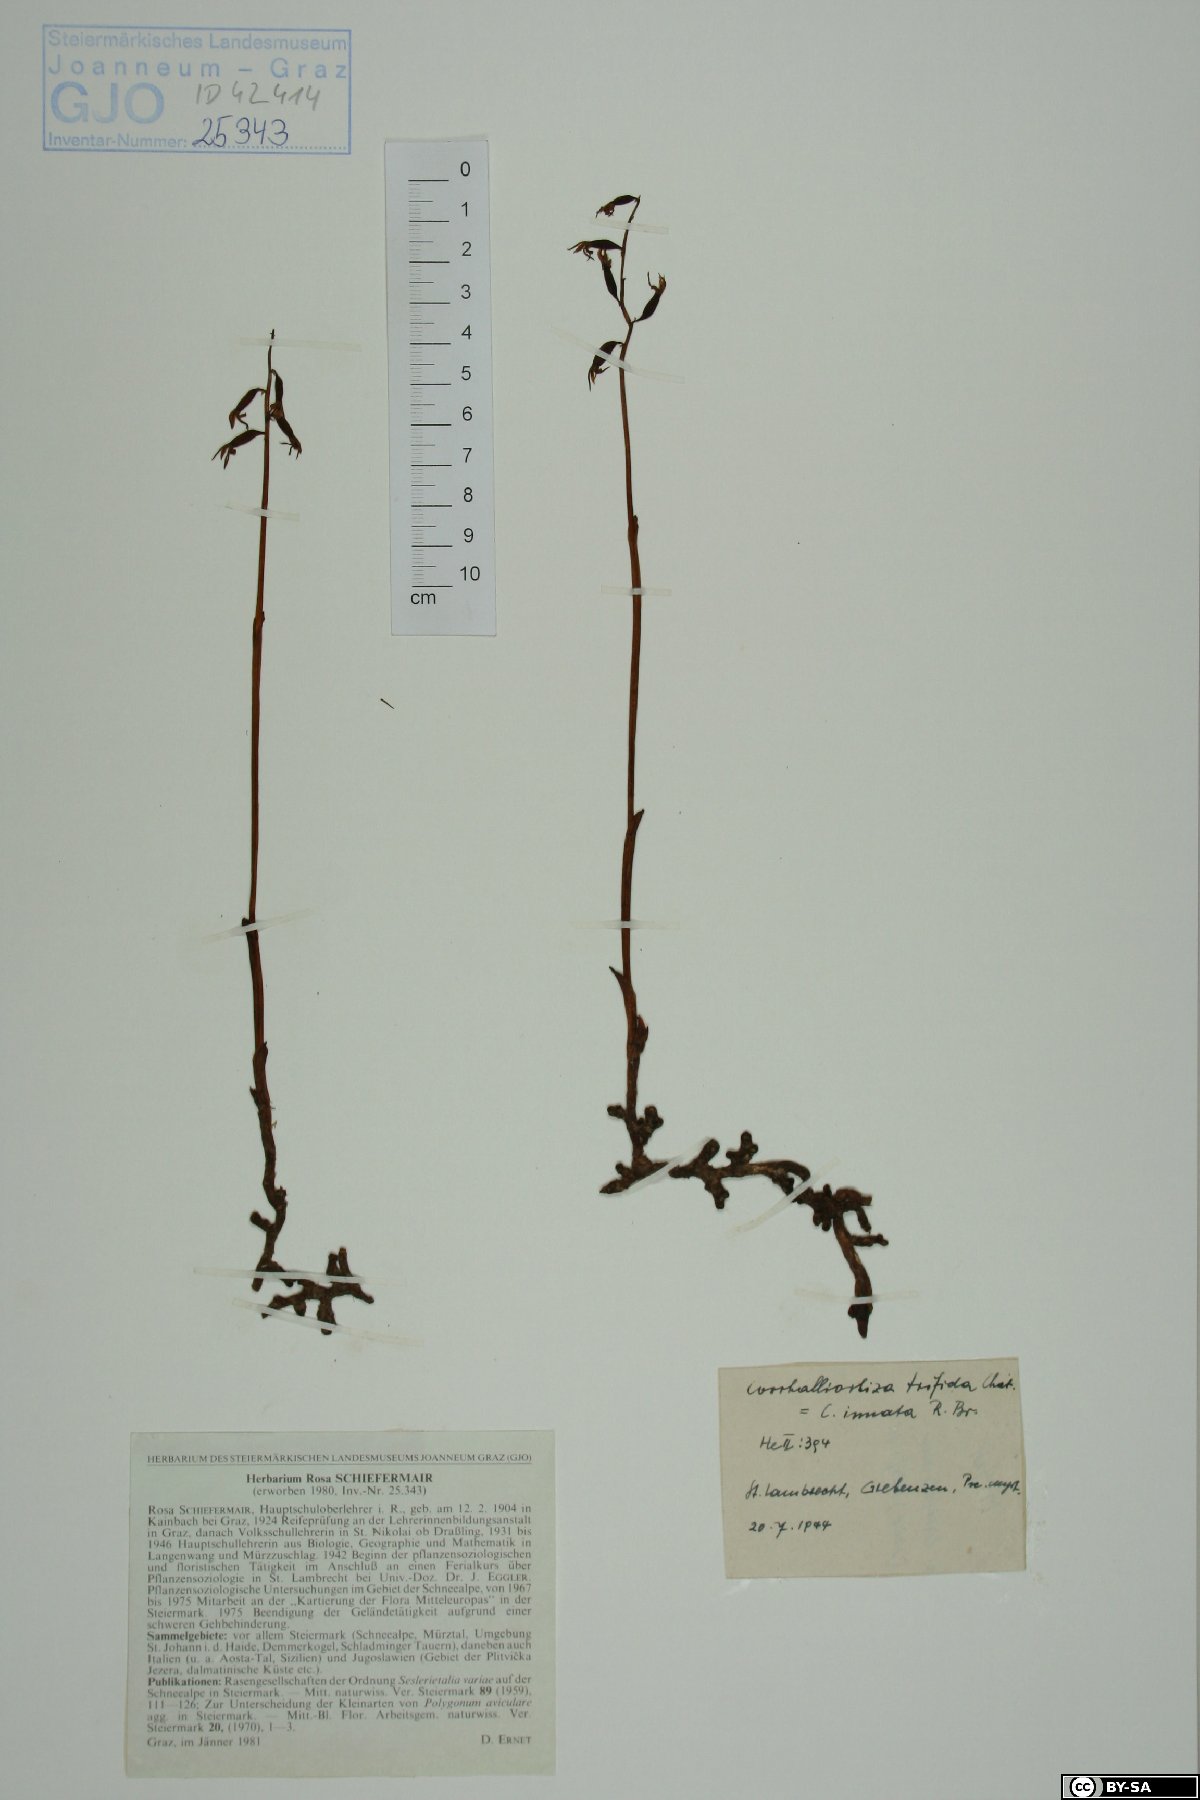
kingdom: Plantae
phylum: Tracheophyta
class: Liliopsida
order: Asparagales
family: Orchidaceae
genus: Corallorhiza
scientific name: Corallorhiza trifida
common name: Yellow coralroot
